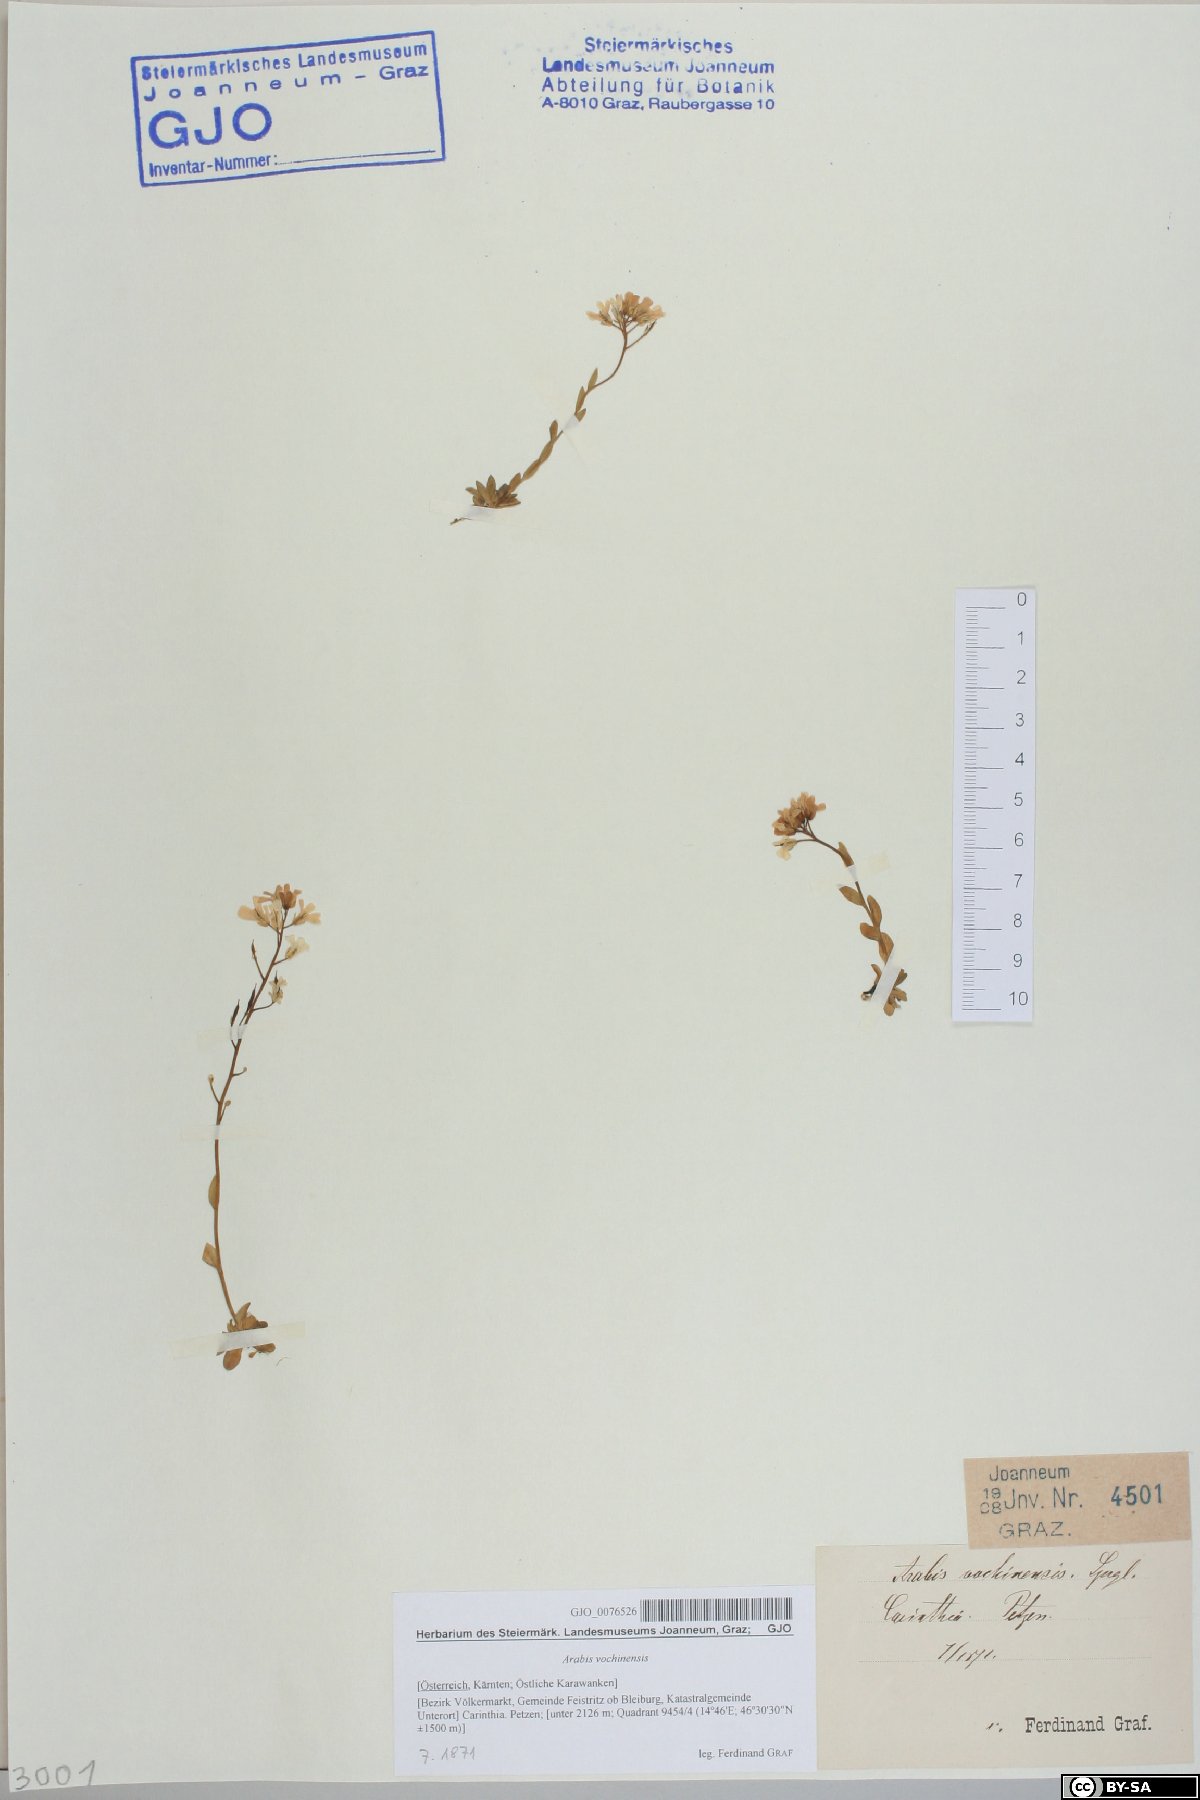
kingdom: Plantae
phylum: Tracheophyta
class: Magnoliopsida
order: Brassicales
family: Brassicaceae
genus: Arabis
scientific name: Arabis vochinensis
